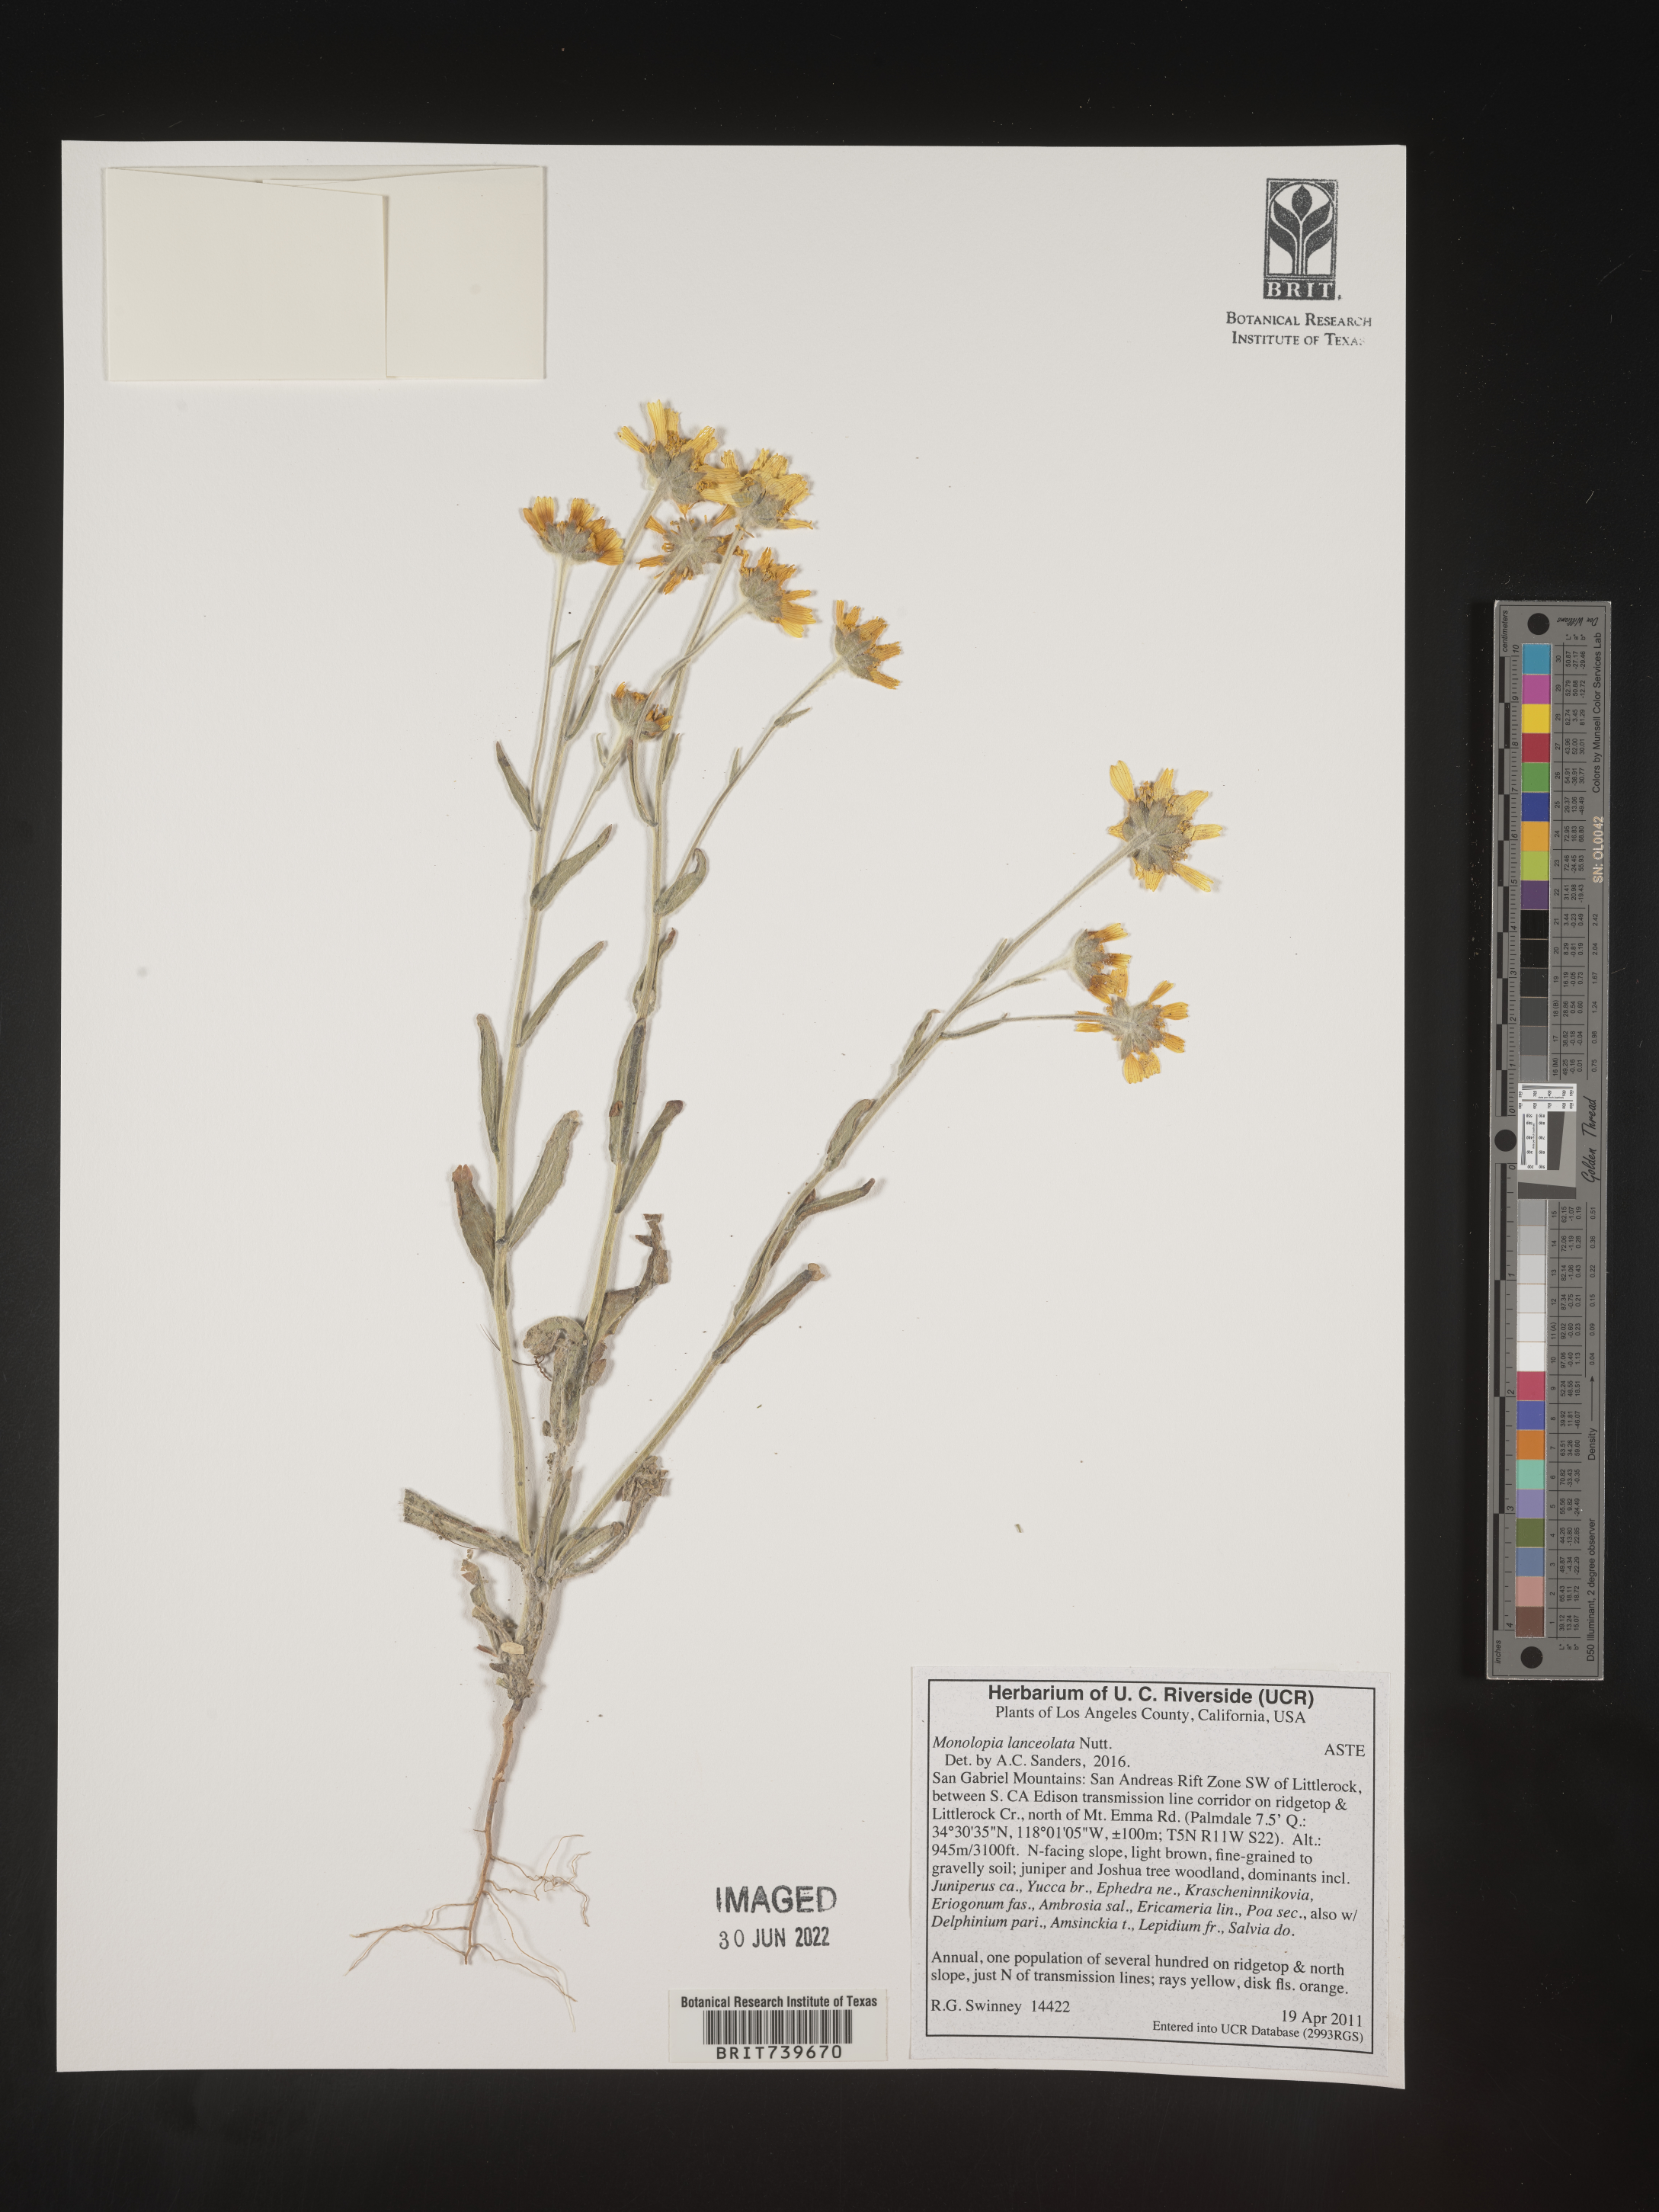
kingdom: Plantae
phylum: Tracheophyta
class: Magnoliopsida
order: Asterales
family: Asteraceae
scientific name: Asteraceae
